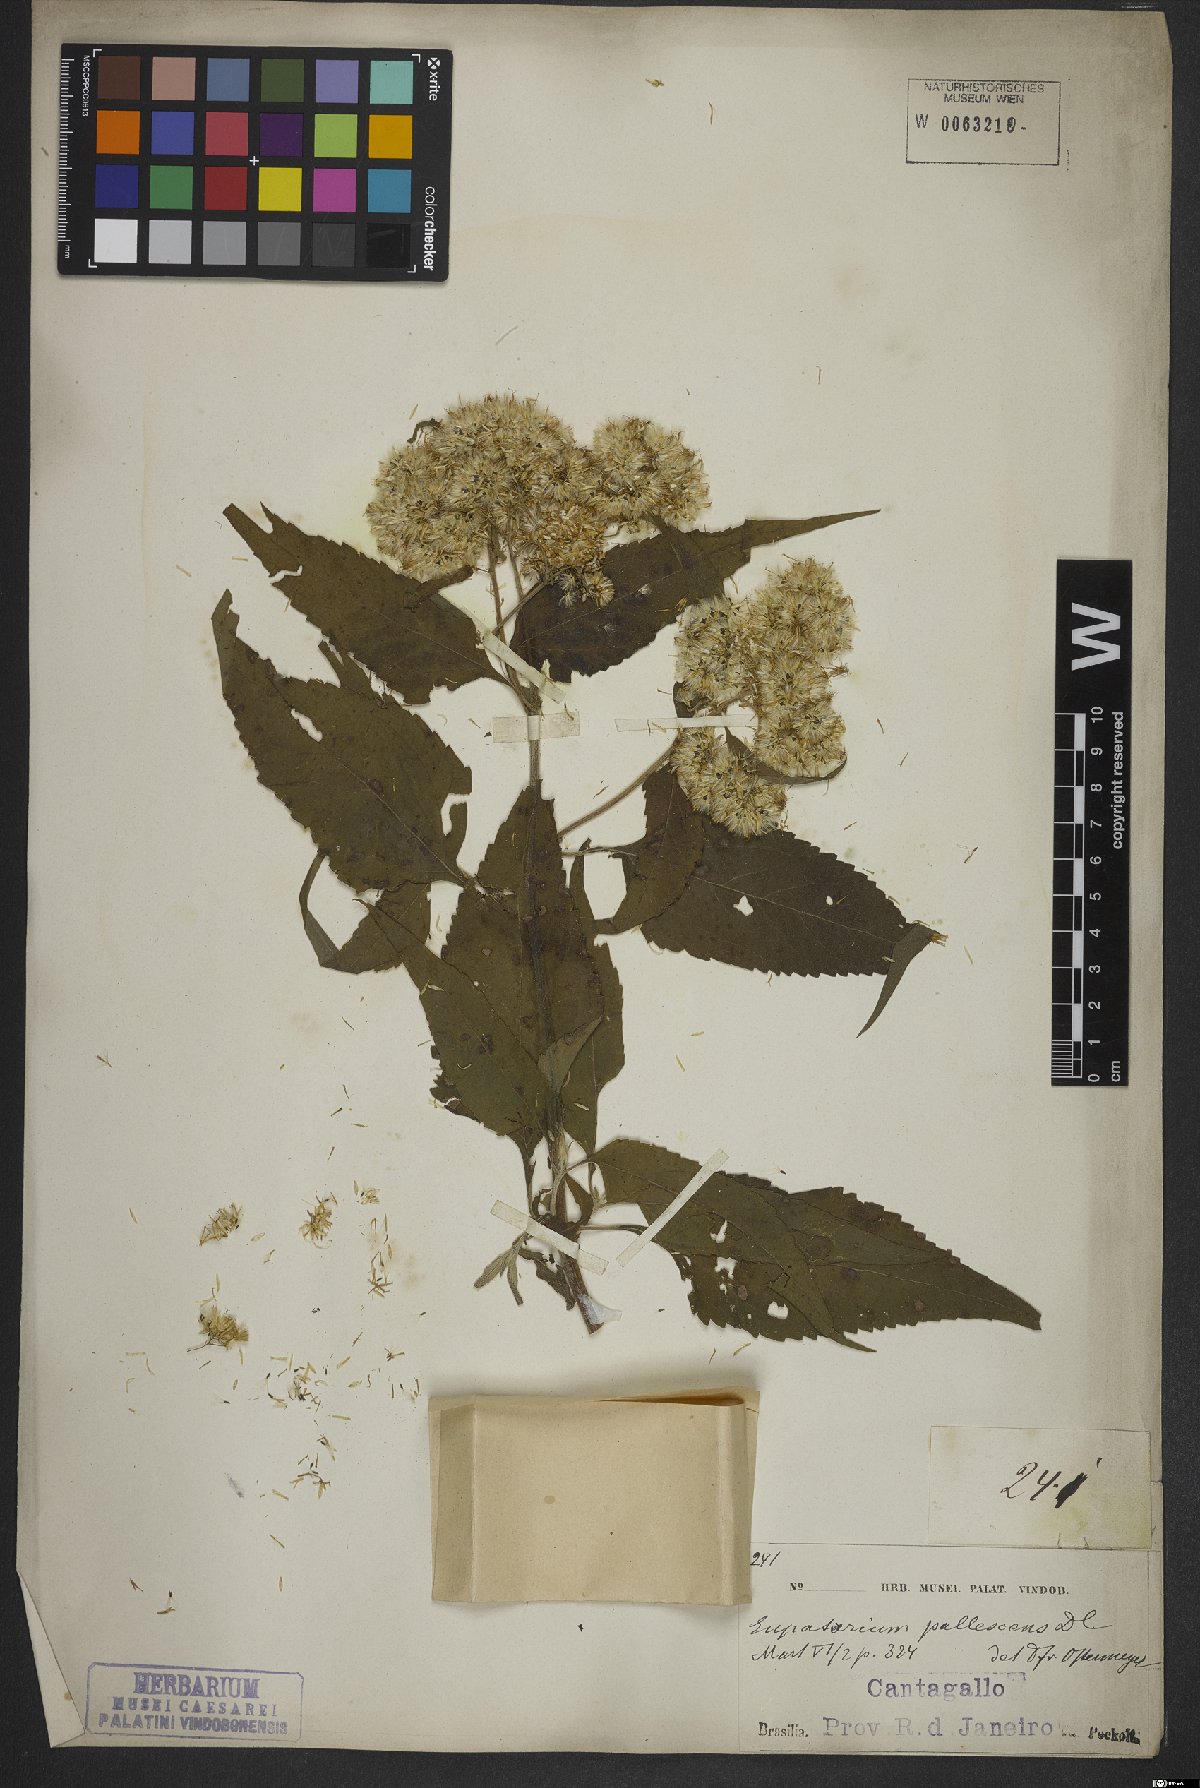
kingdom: Plantae
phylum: Tracheophyta
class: Magnoliopsida
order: Asterales
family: Asteraceae
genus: Austroeupatorium
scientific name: Austroeupatorium inulifolium
